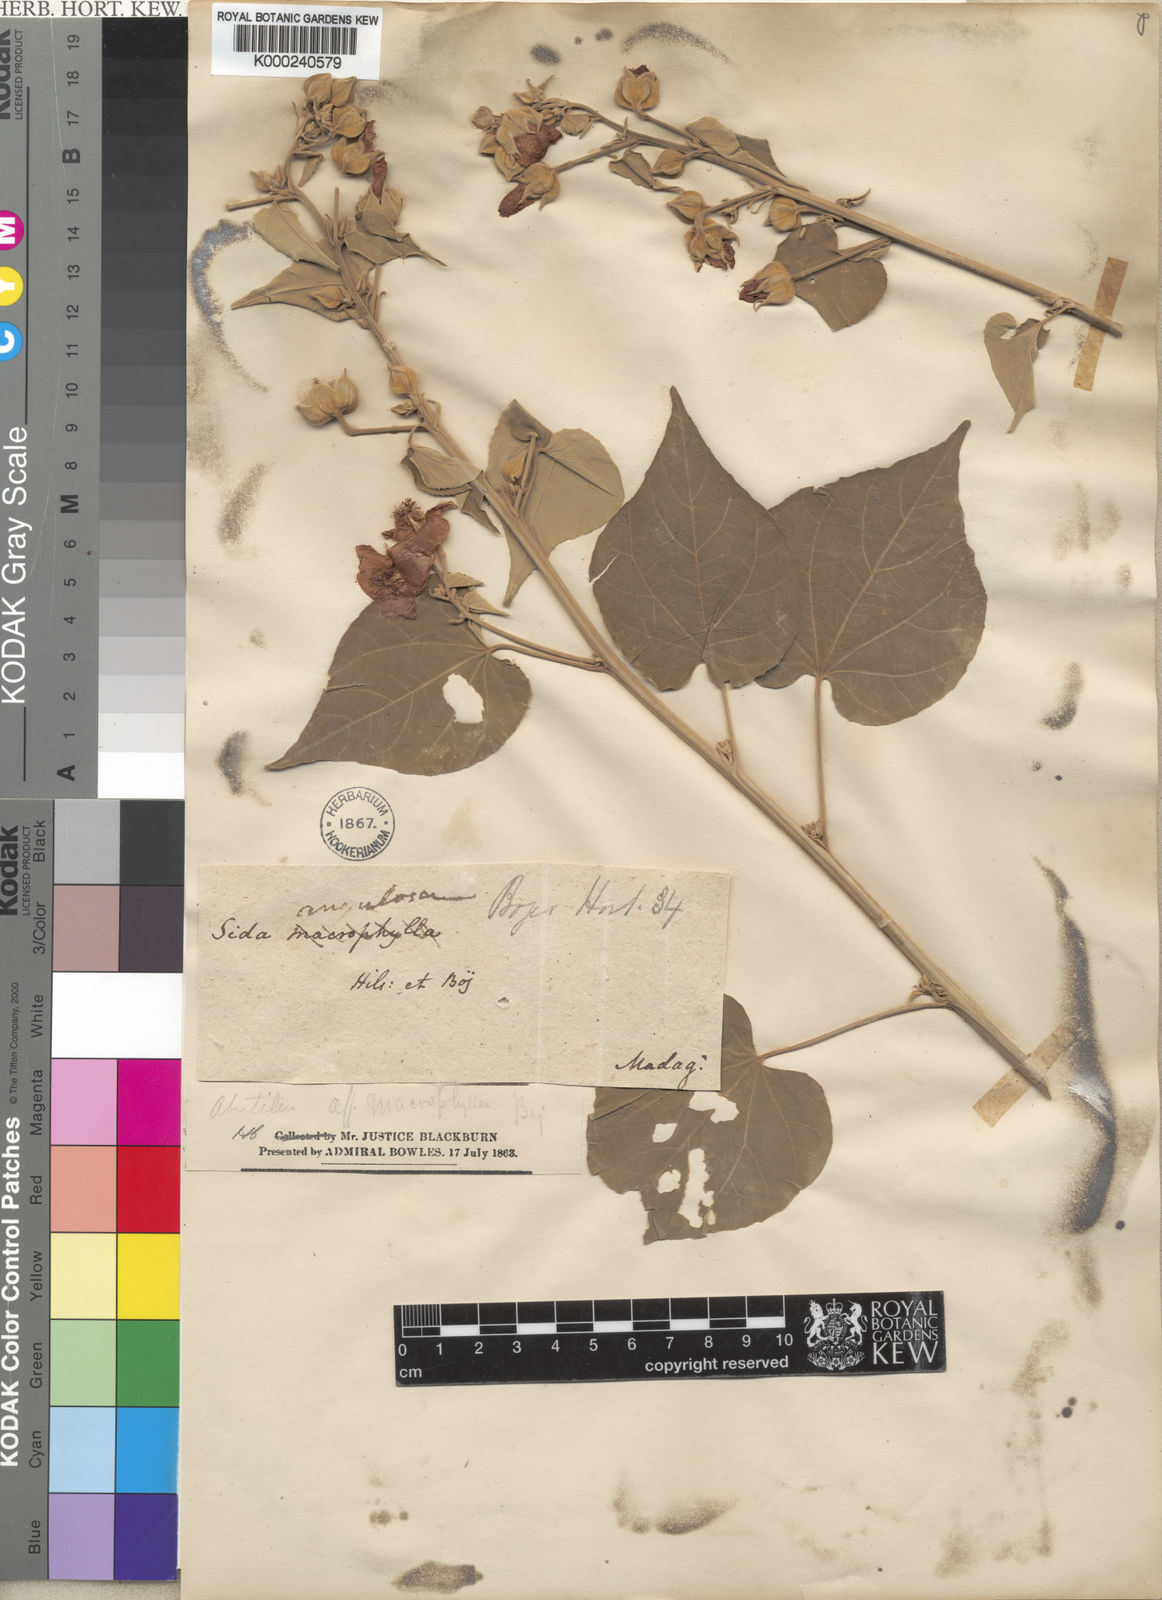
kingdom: Plantae
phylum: Tracheophyta
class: Magnoliopsida
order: Malvales
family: Malvaceae
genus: Abutilon
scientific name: Abutilon angulatum
